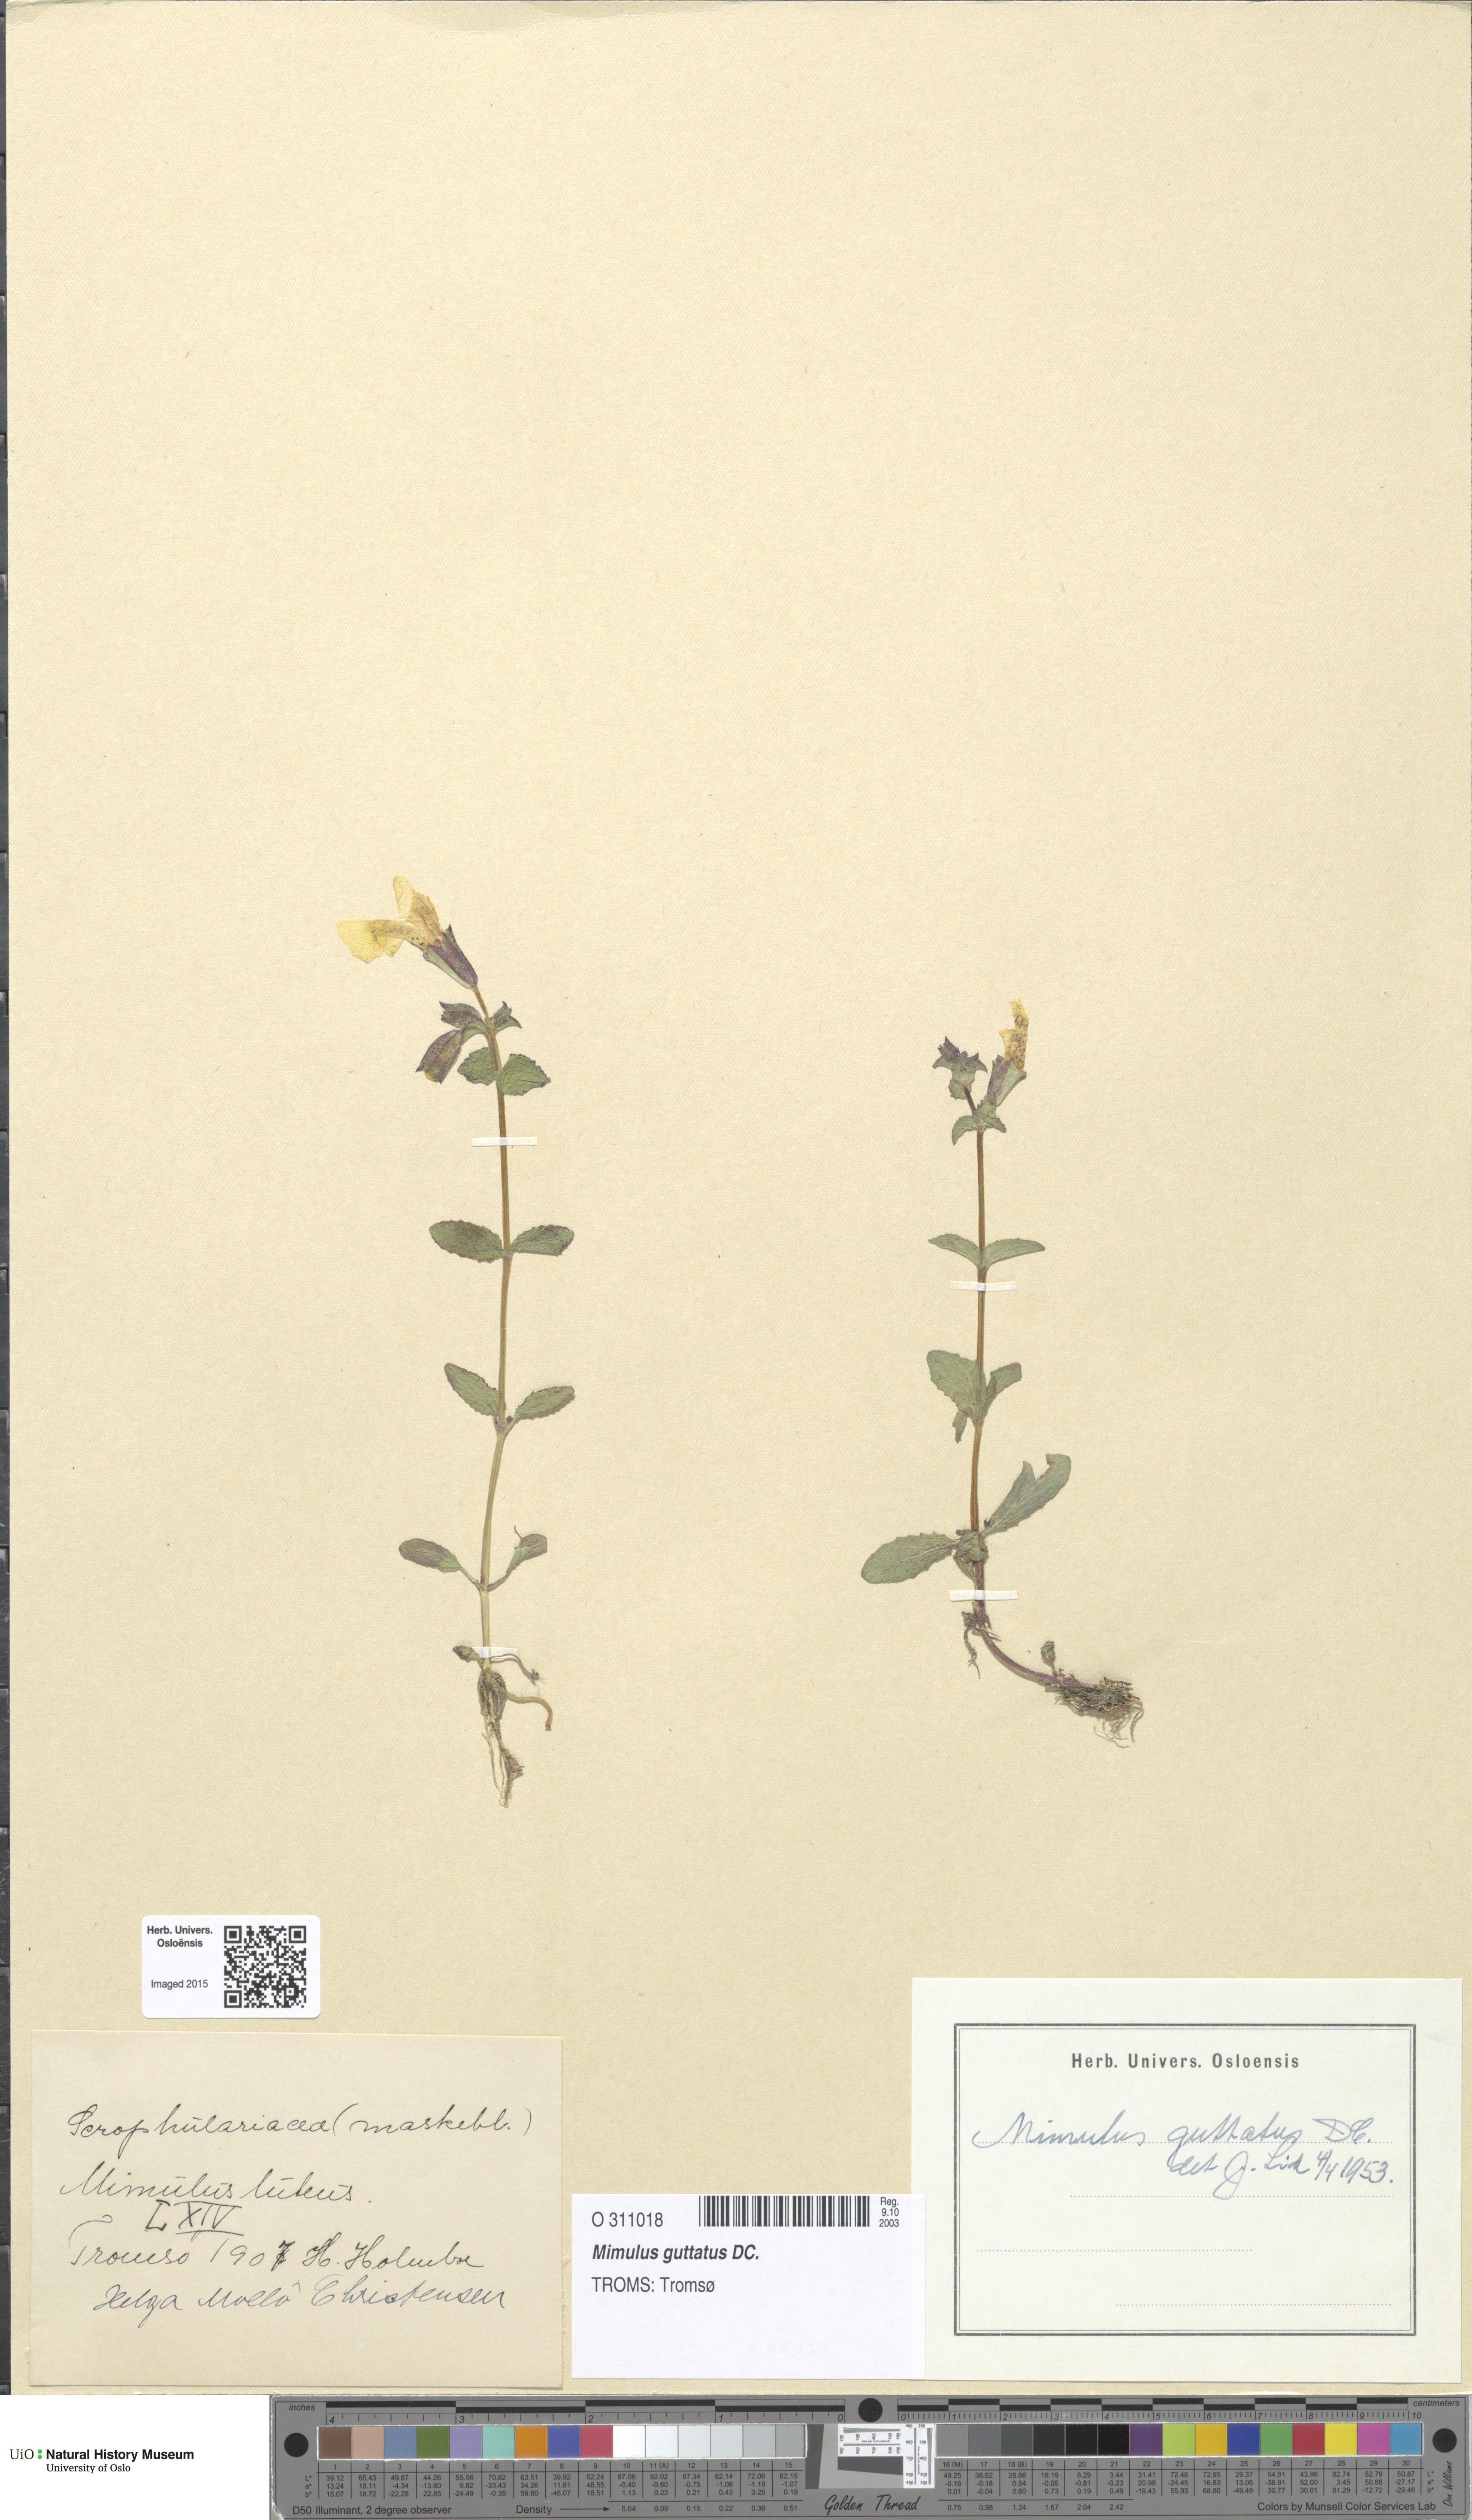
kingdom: Plantae
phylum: Tracheophyta
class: Magnoliopsida
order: Lamiales
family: Phrymaceae
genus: Erythranthe
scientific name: Erythranthe guttata
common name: Monkeyflower
